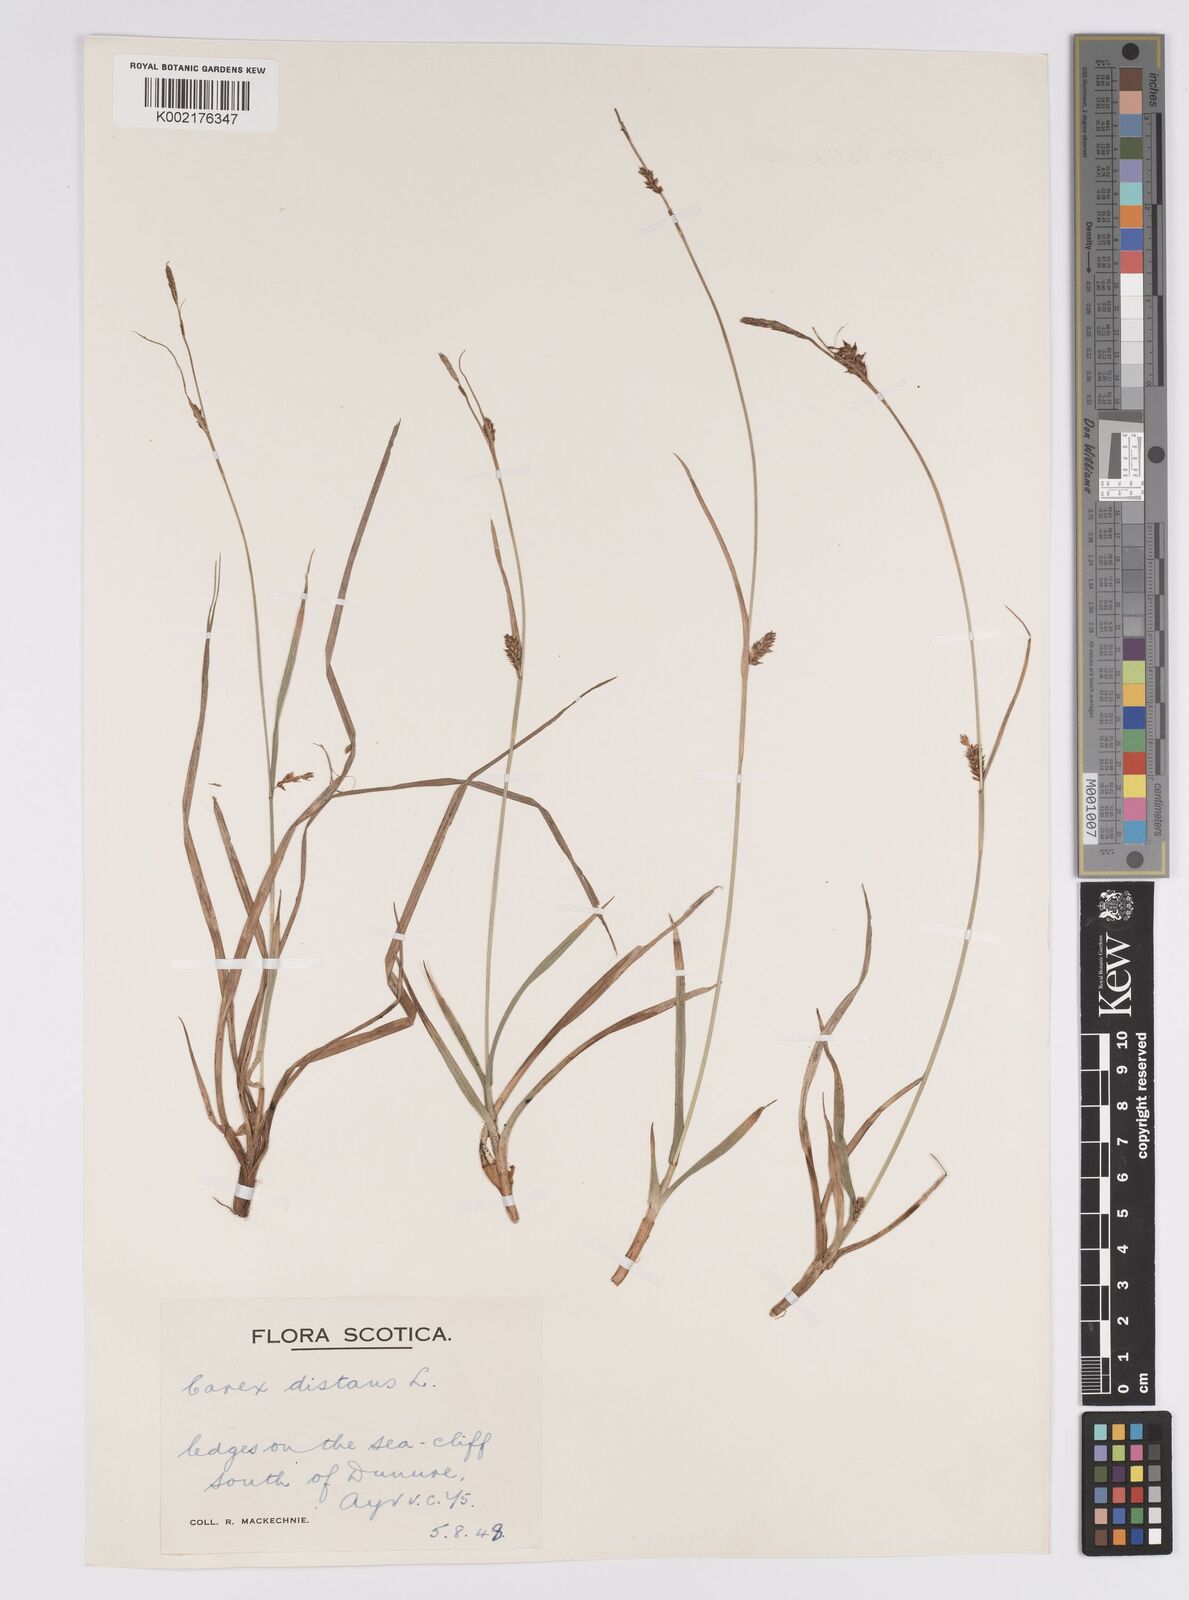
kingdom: Plantae
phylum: Tracheophyta
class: Liliopsida
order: Poales
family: Cyperaceae
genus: Carex
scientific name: Carex distans
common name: Distant sedge
